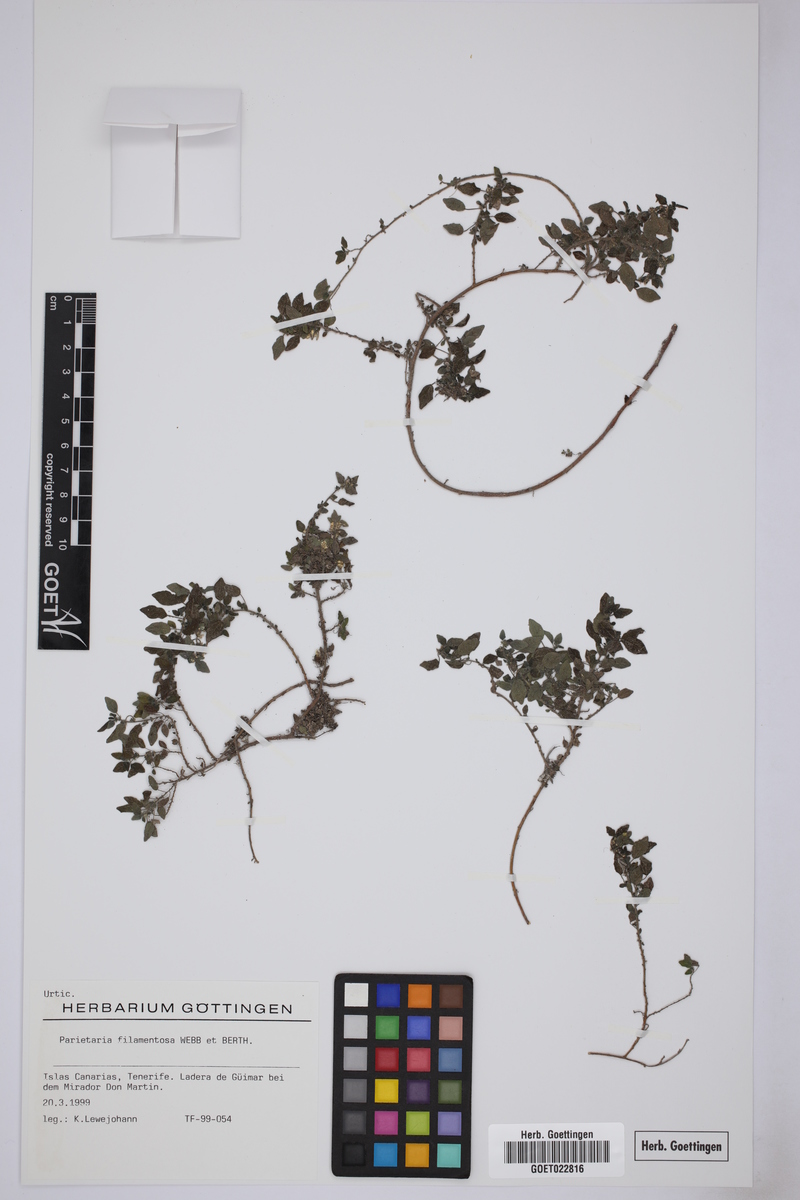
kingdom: Plantae
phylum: Tracheophyta
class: Magnoliopsida
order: Rosales
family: Urticaceae
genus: Parietaria
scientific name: Parietaria filamentosa
